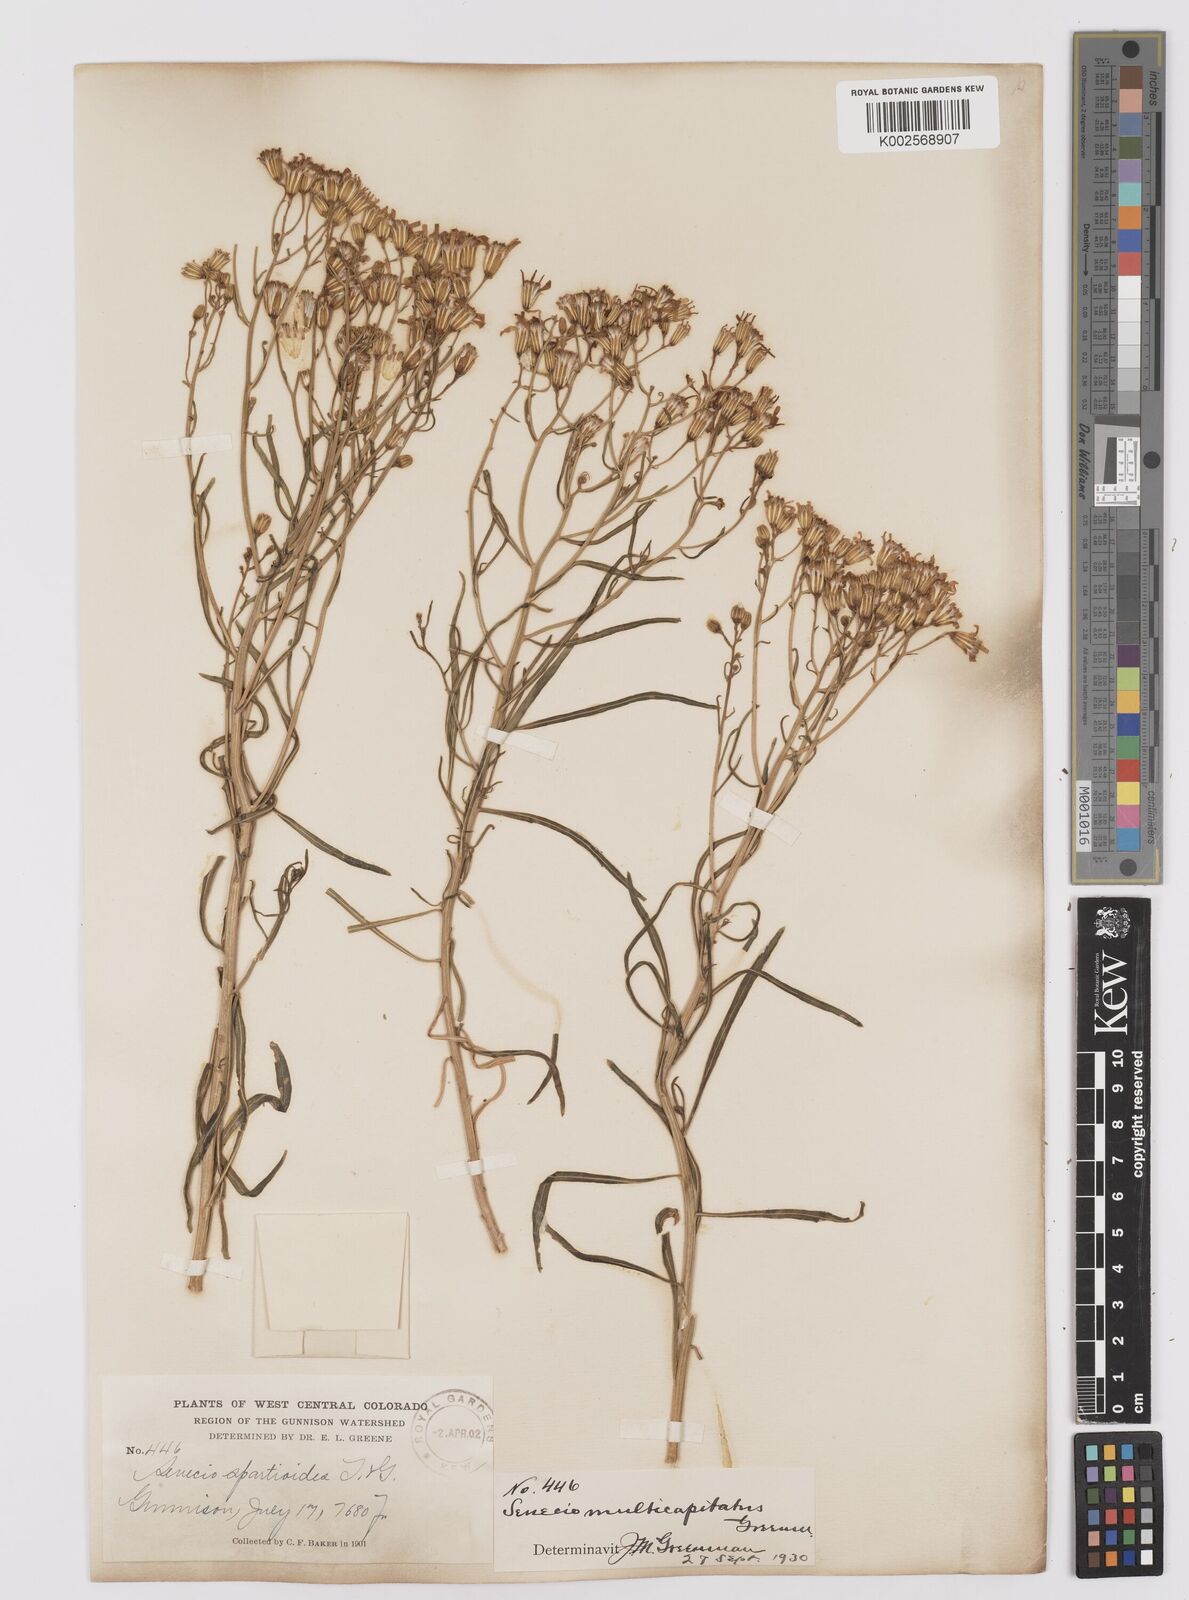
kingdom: Plantae
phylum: Tracheophyta
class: Magnoliopsida
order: Asterales
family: Asteraceae
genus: Senecio
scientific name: Senecio spartioides
